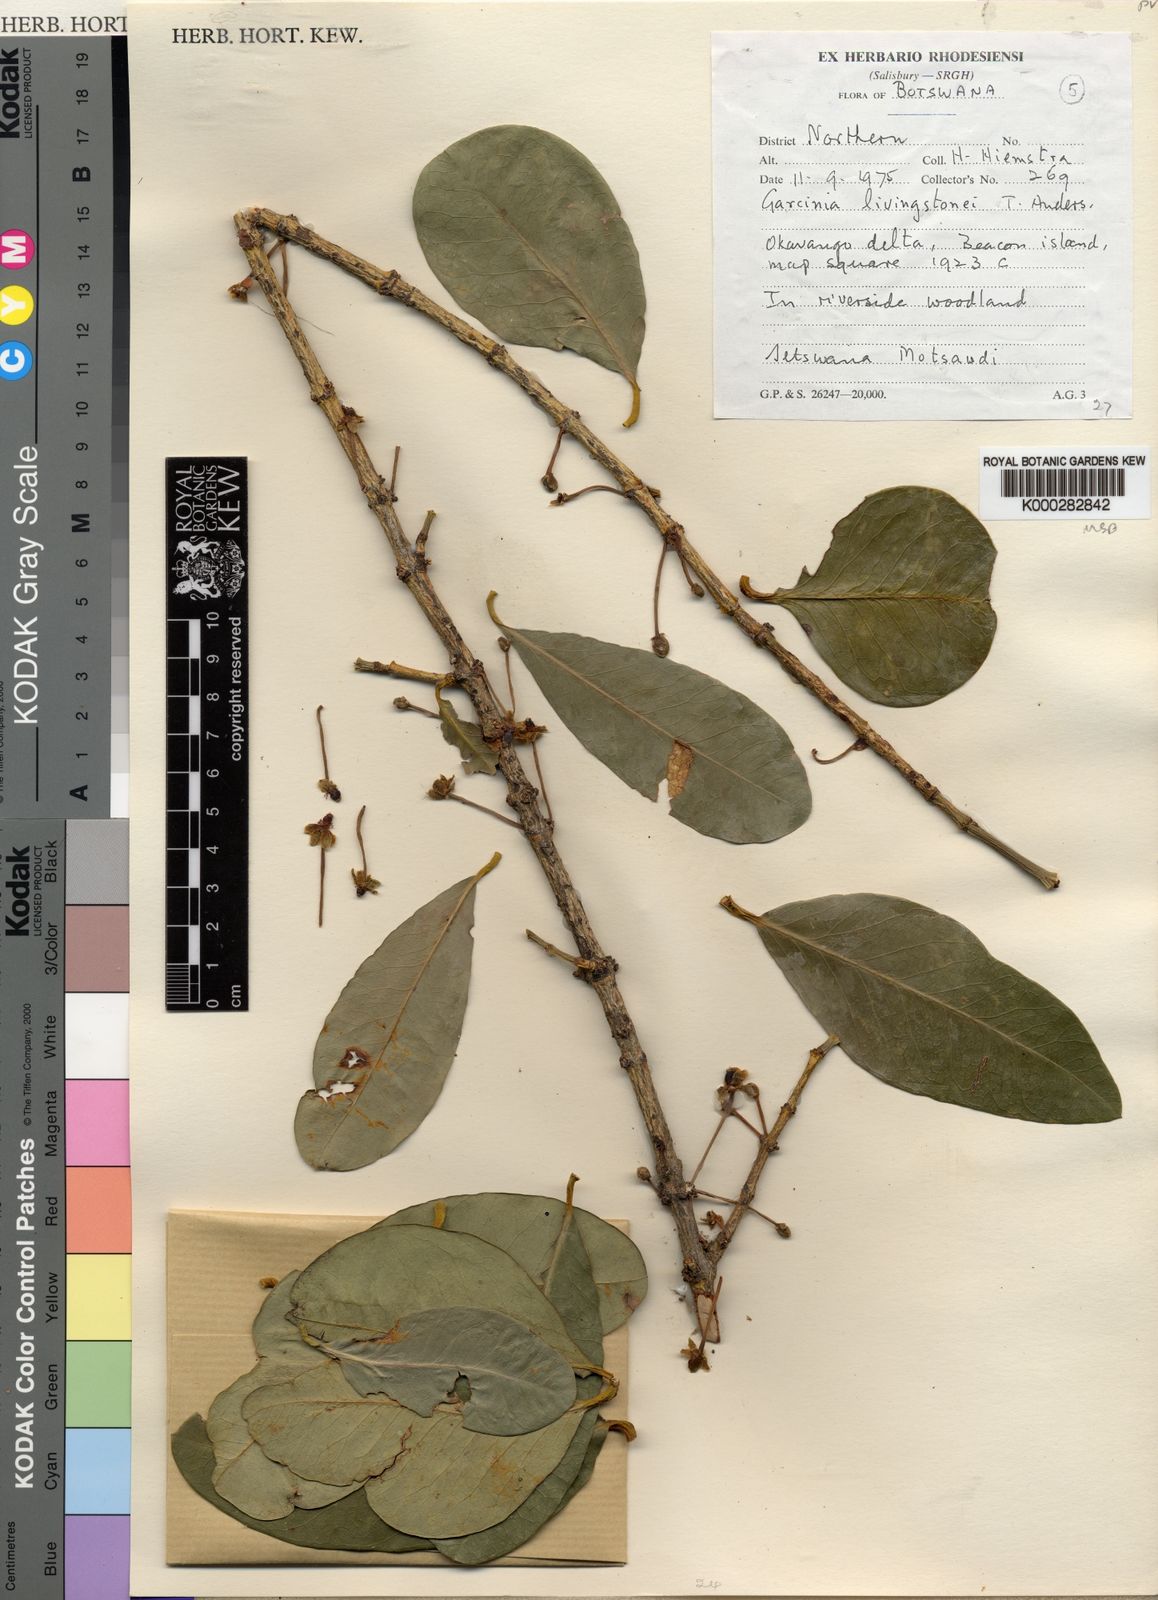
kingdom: Plantae
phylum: Tracheophyta
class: Magnoliopsida
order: Malpighiales
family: Clusiaceae
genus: Garcinia
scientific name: Garcinia livingstonei
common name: African mangosteen
